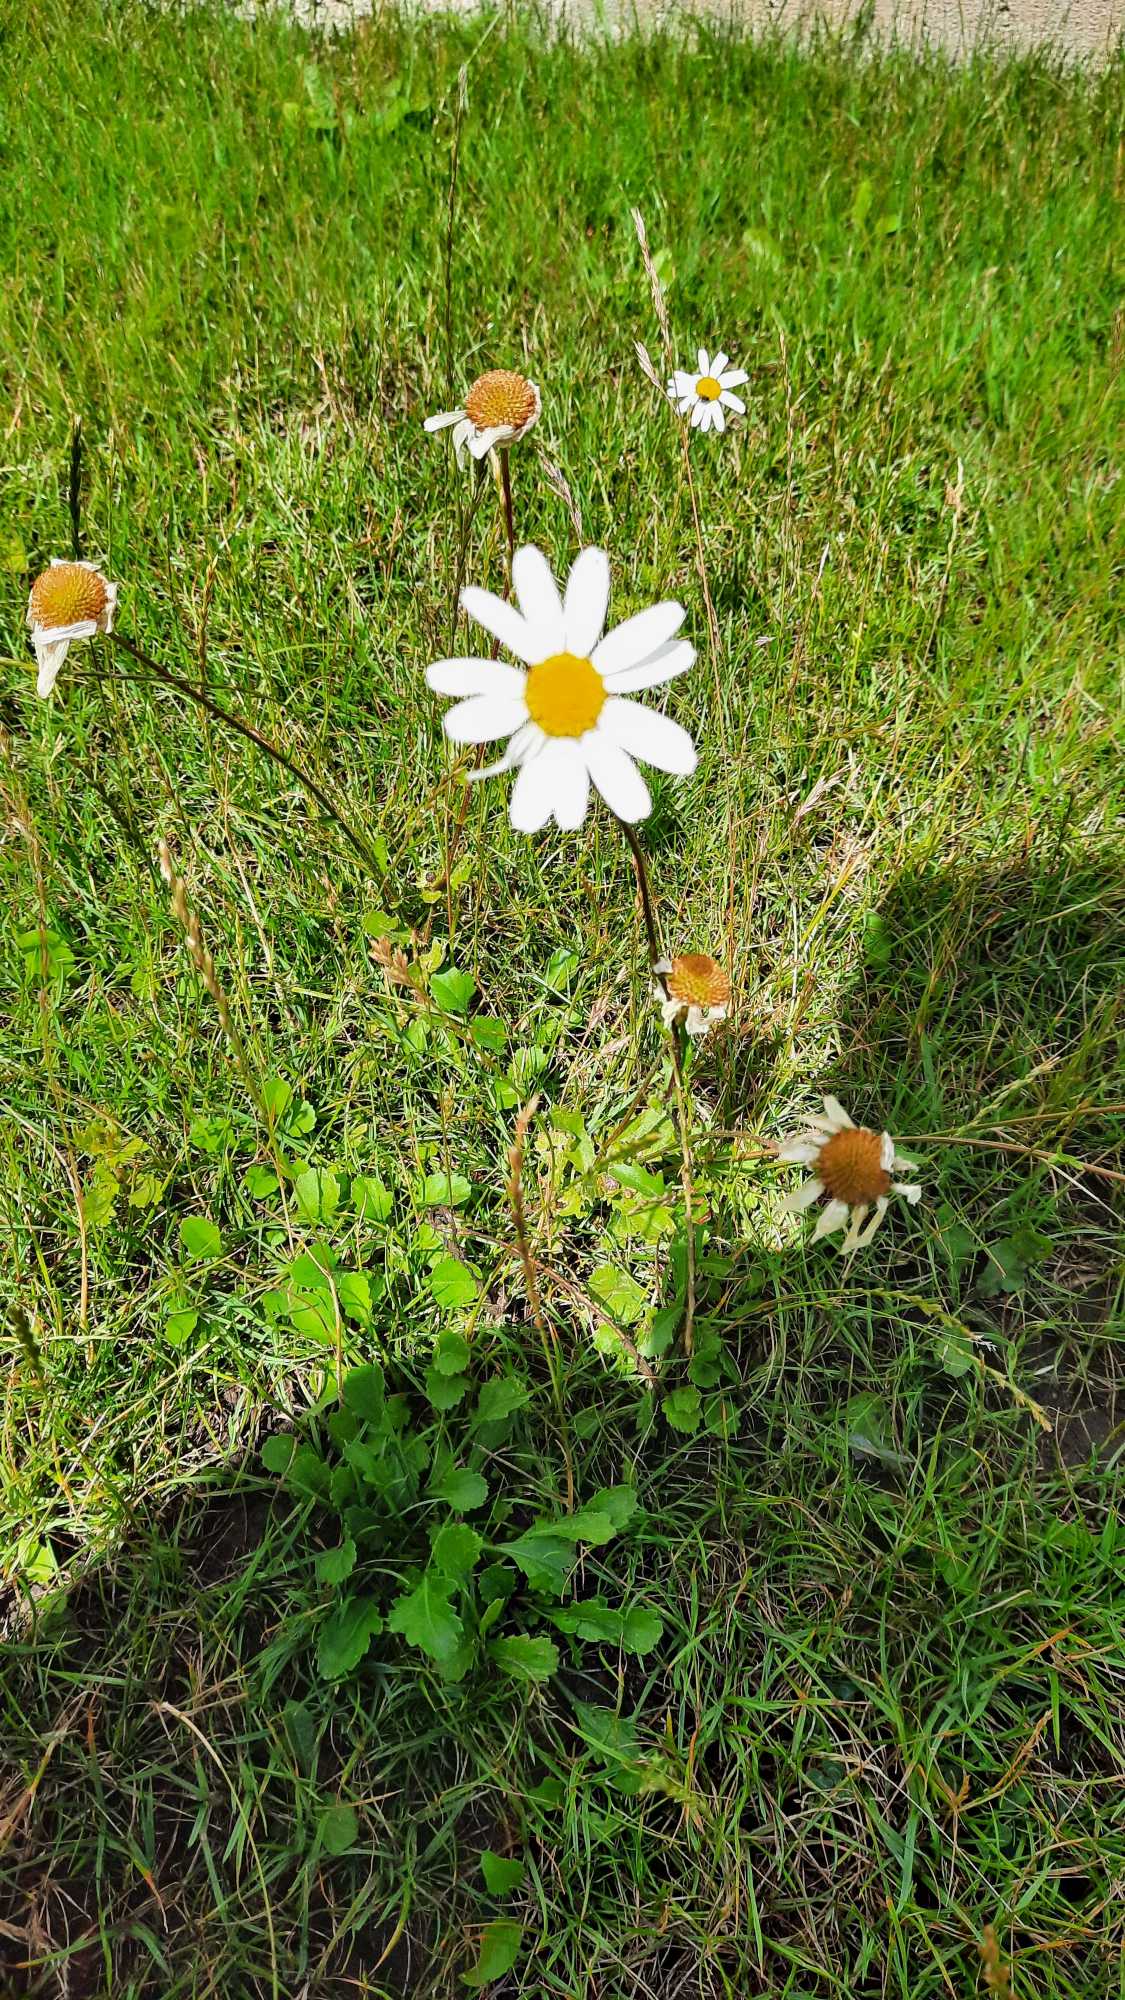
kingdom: Plantae
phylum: Tracheophyta
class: Magnoliopsida
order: Asterales
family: Asteraceae
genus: Leucanthemum
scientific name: Leucanthemum vulgare
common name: Hvid okseøje
